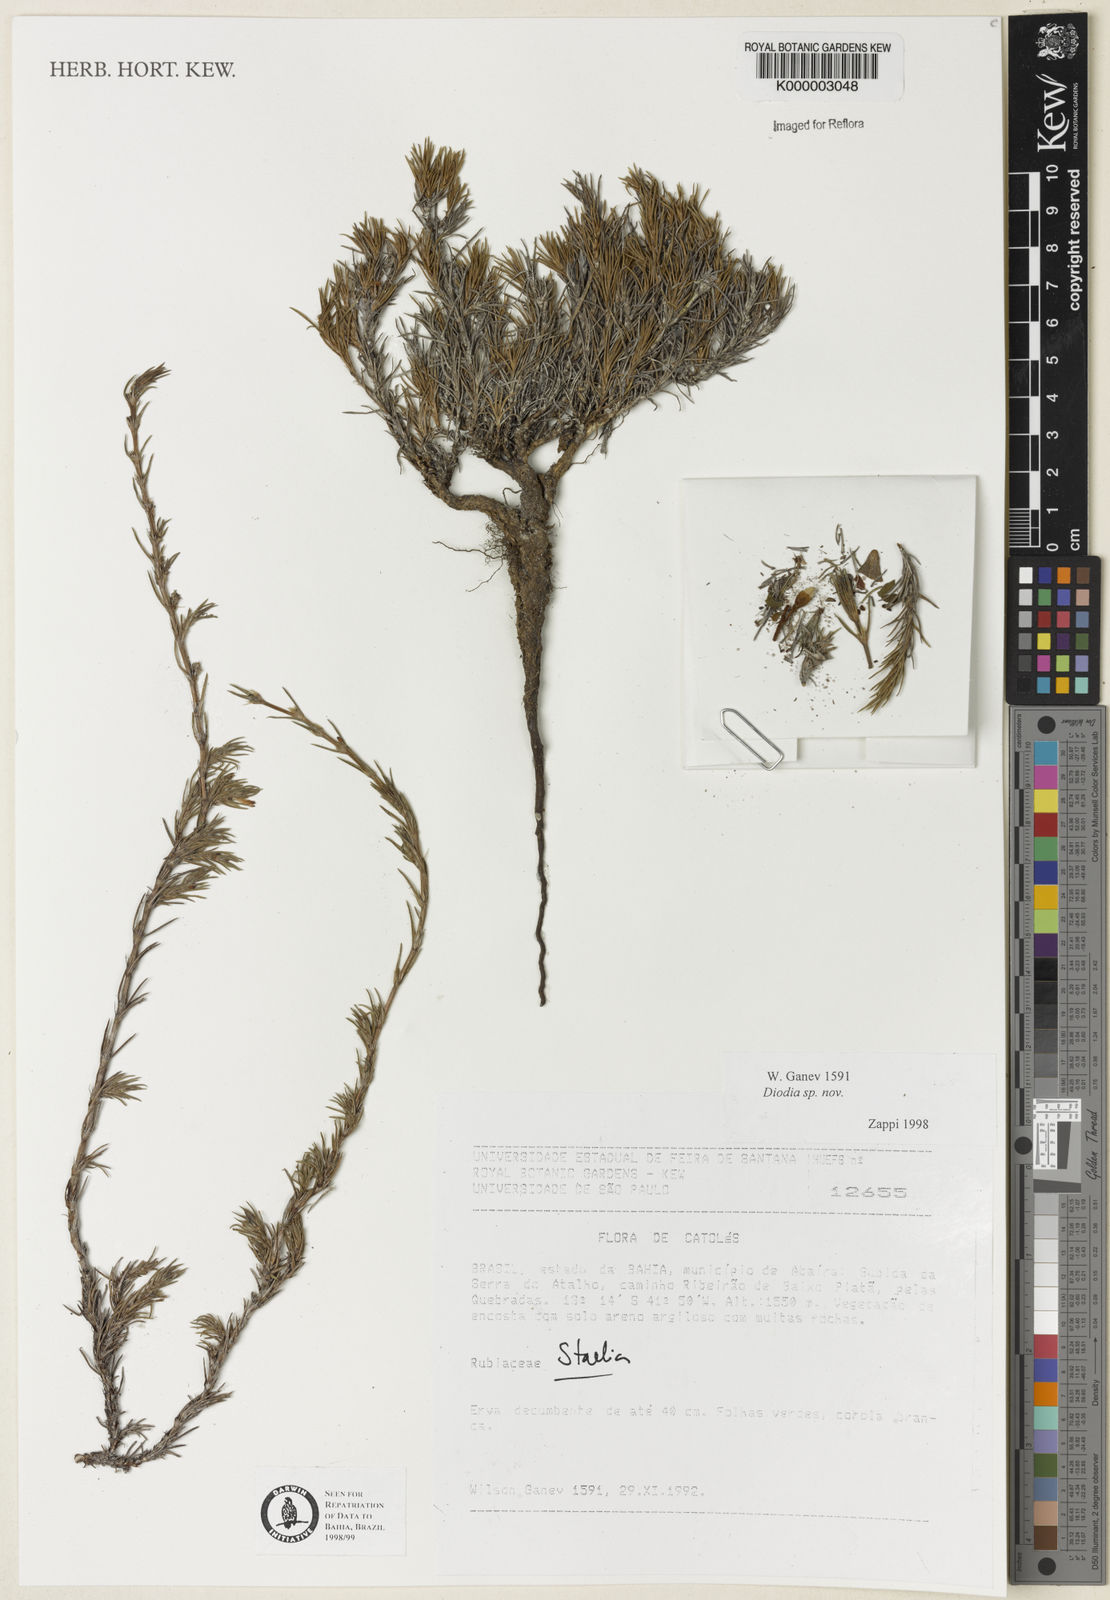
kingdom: Plantae
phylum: Tracheophyta
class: Magnoliopsida
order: Gentianales
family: Rubiaceae
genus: Hexasepalum
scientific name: Hexasepalum
